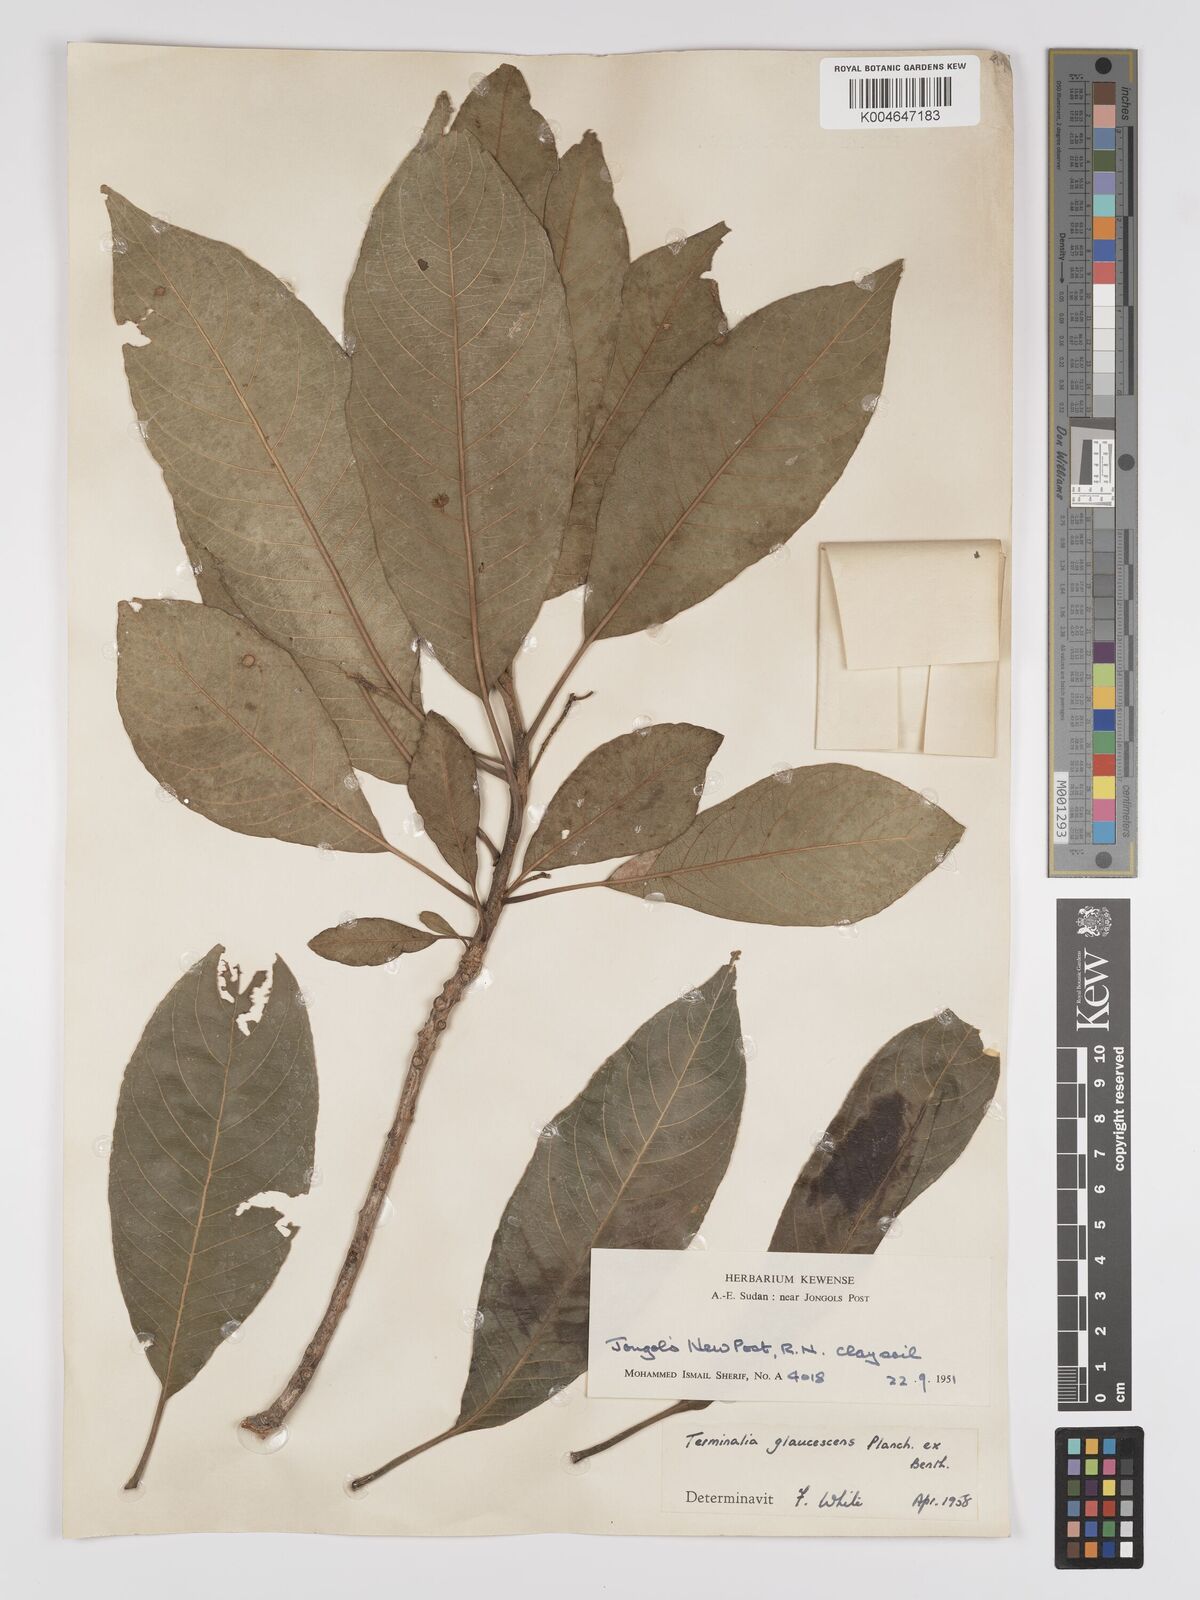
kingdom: Plantae
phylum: Tracheophyta
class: Magnoliopsida
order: Myrtales
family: Combretaceae
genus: Terminalia
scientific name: Terminalia schimperiana
